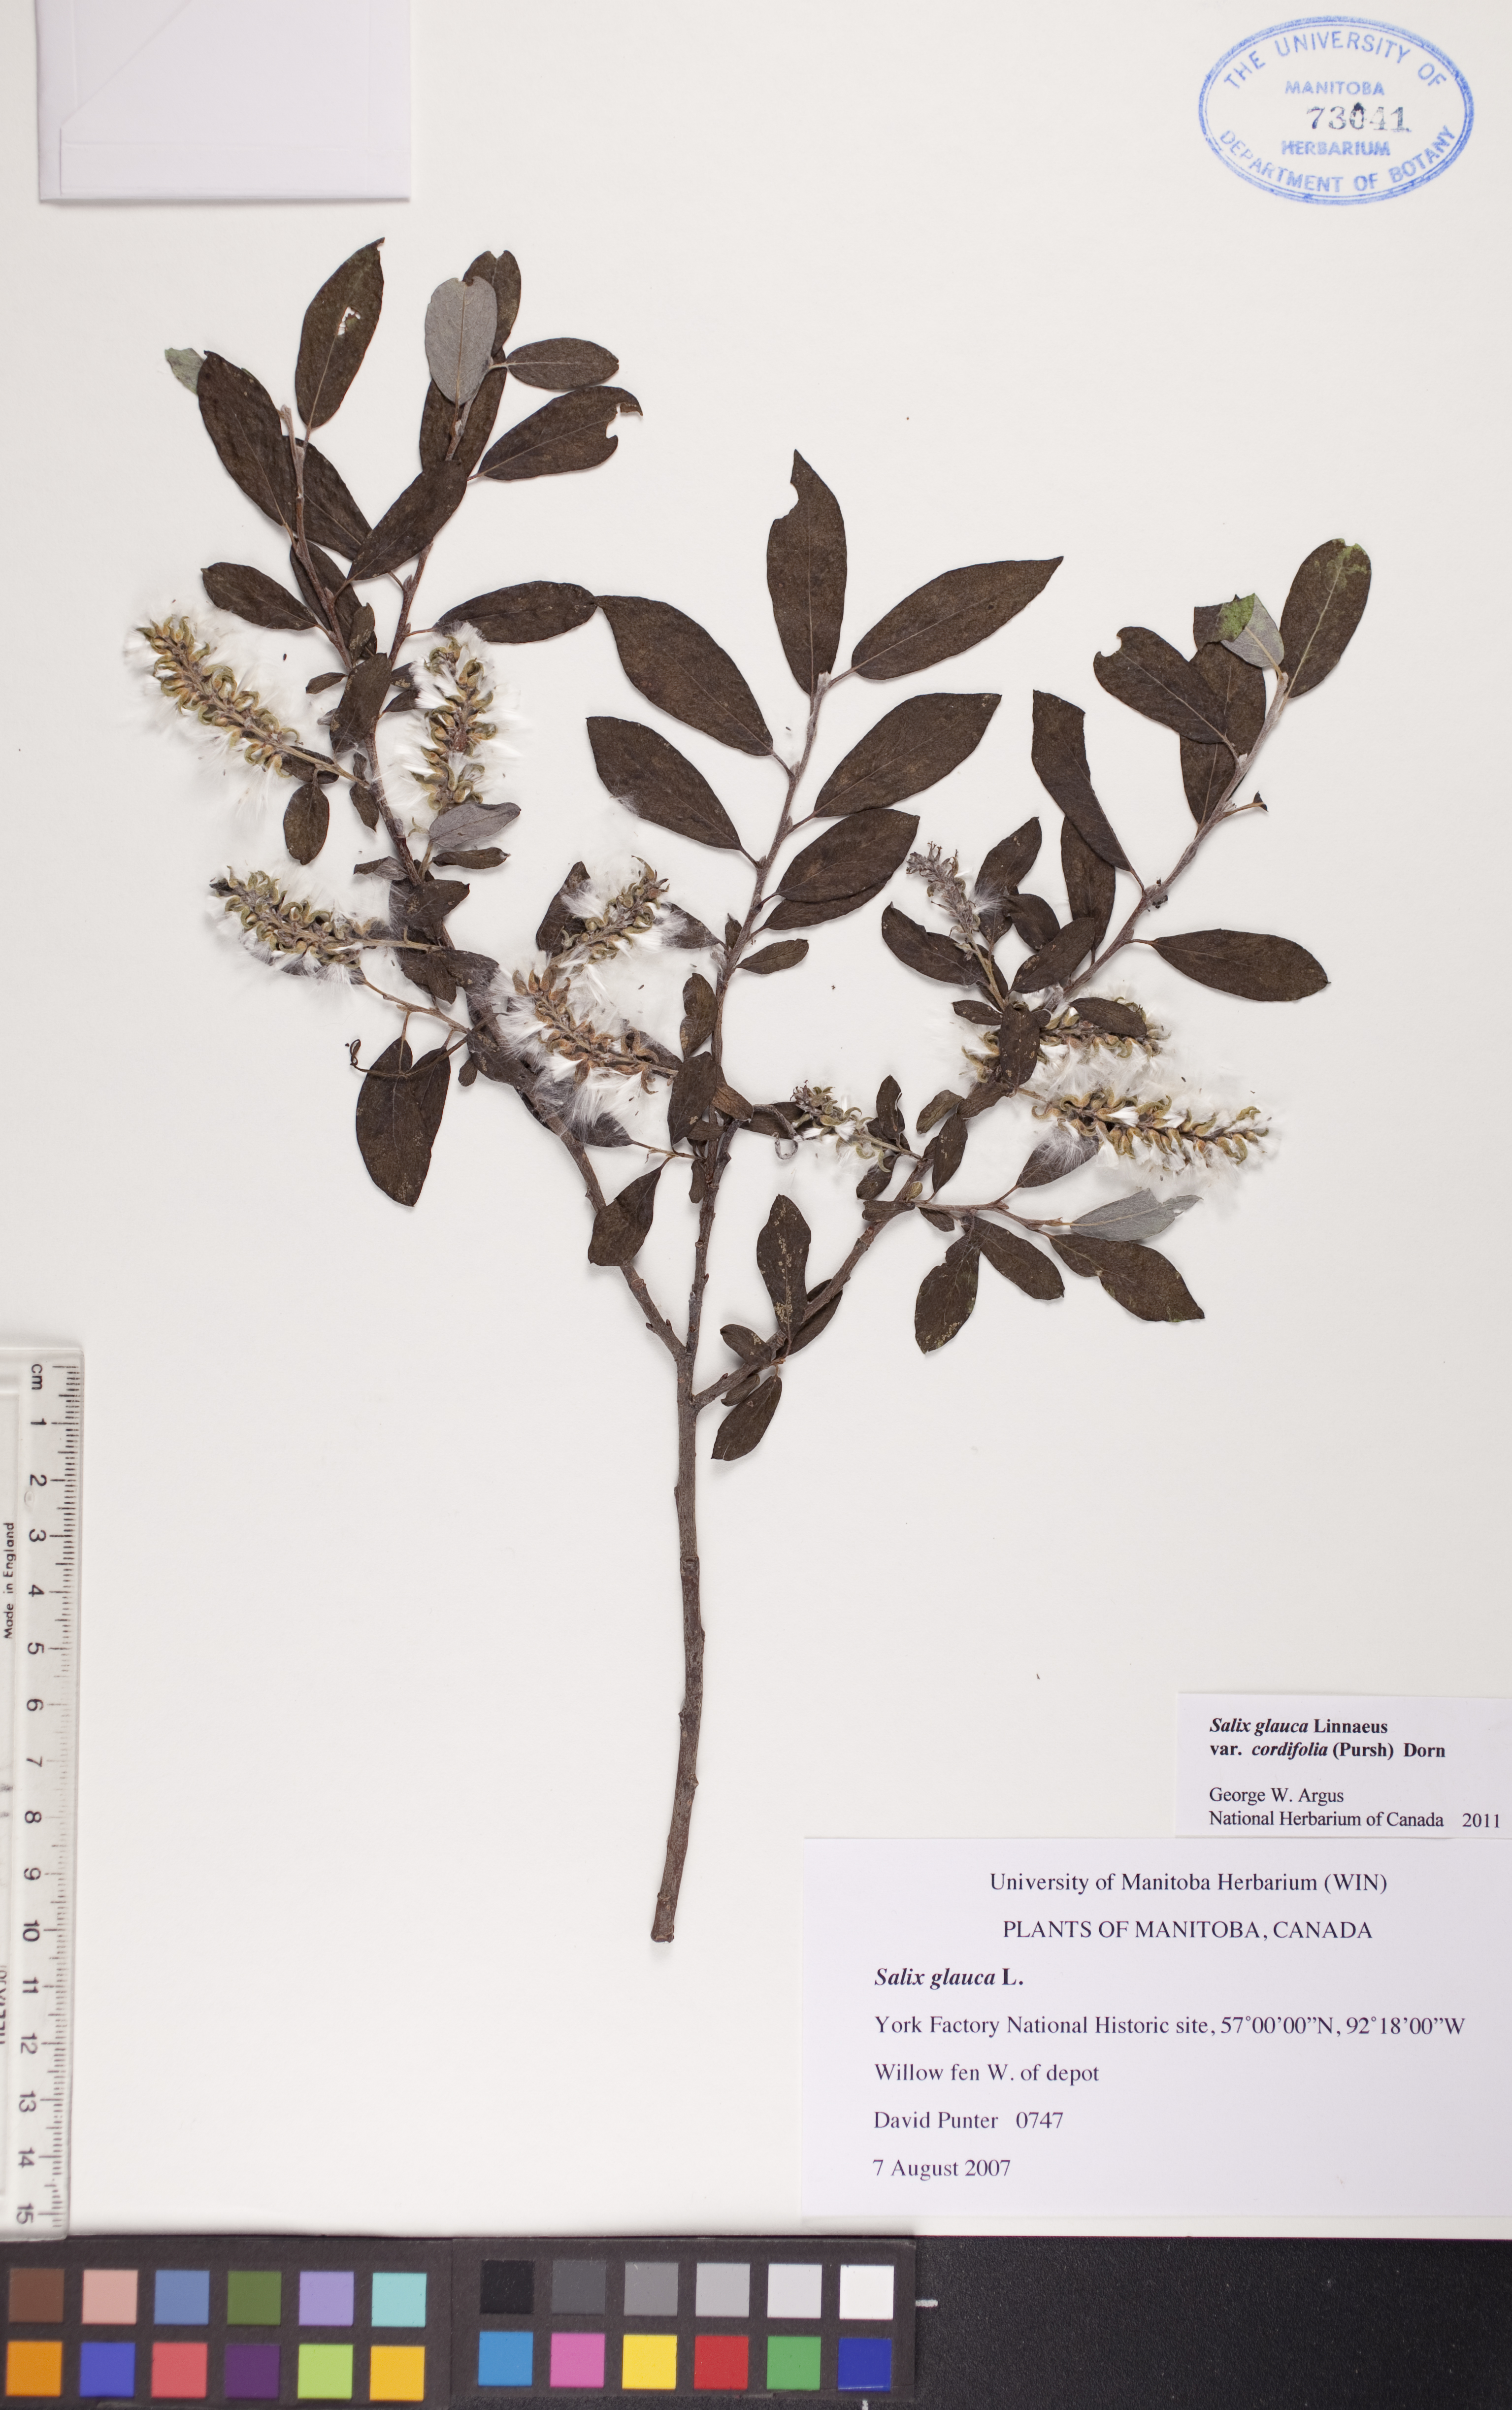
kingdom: Plantae
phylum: Tracheophyta
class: Magnoliopsida
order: Malpighiales
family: Salicaceae
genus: Salix
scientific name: Salix glauca
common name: Glaucous willow
